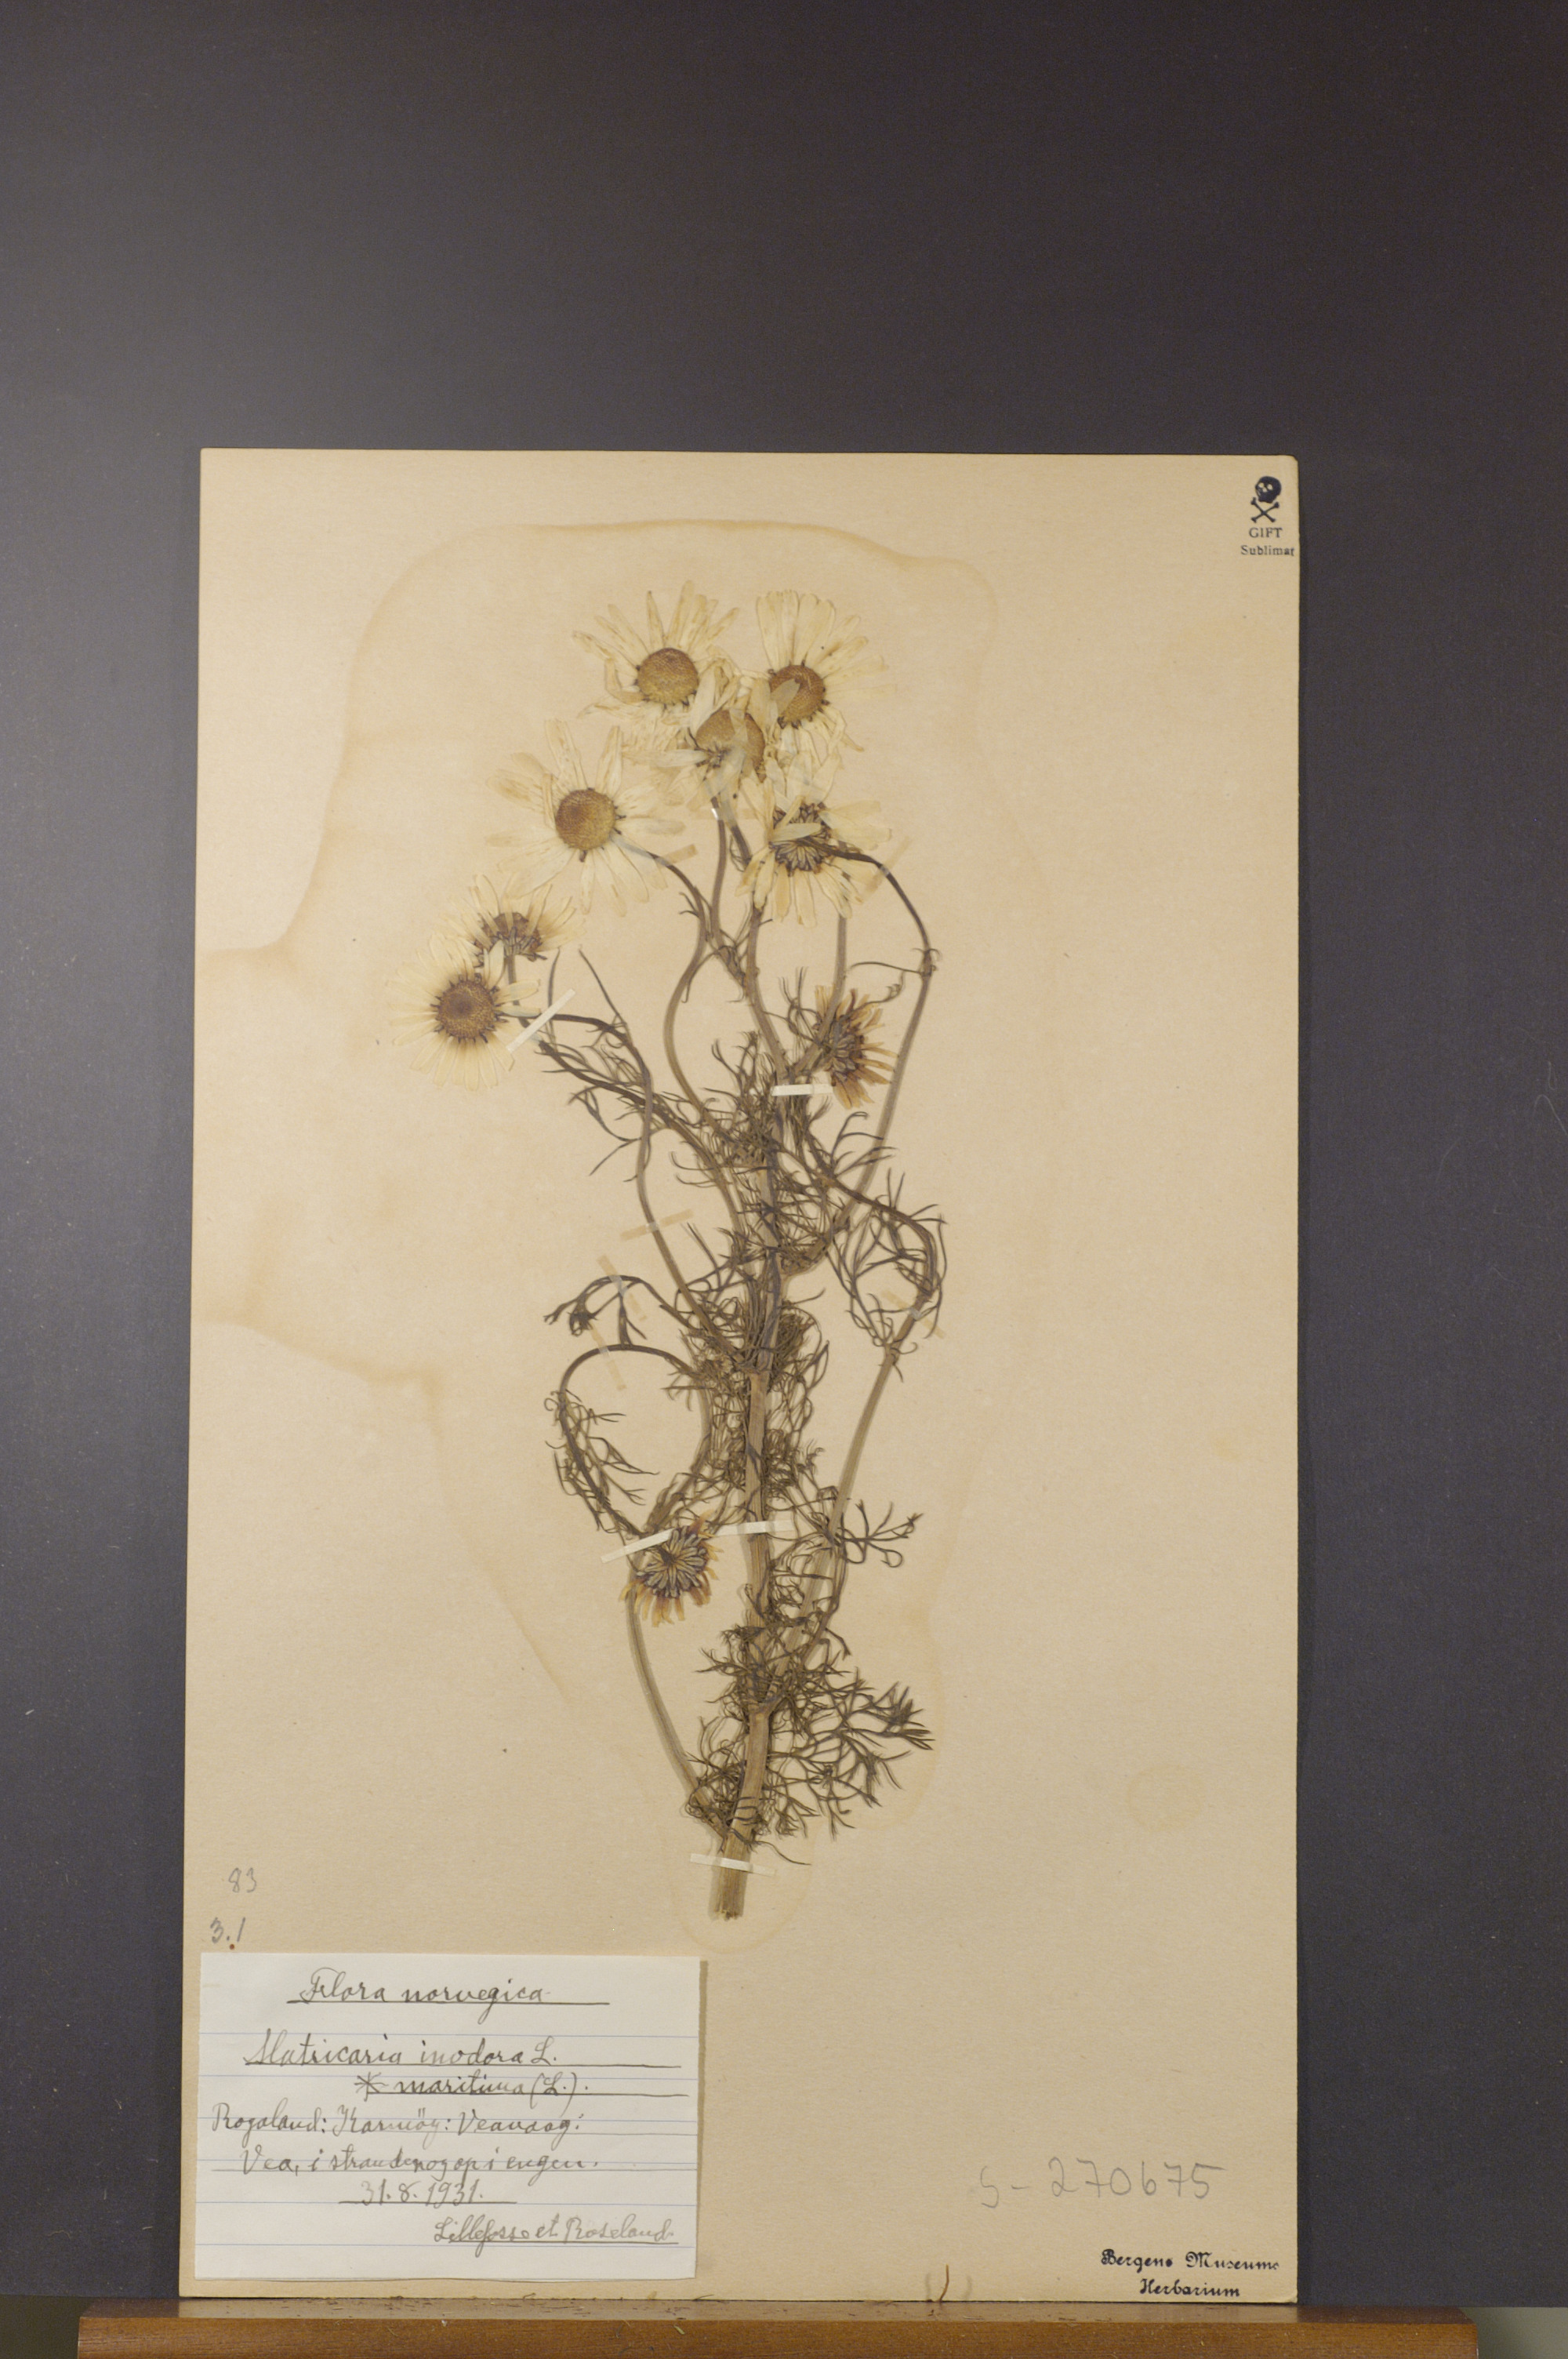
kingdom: Plantae
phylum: Tracheophyta
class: Magnoliopsida
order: Asterales
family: Asteraceae
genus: Tripleurospermum
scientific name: Tripleurospermum maritimum
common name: Sea mayweed
